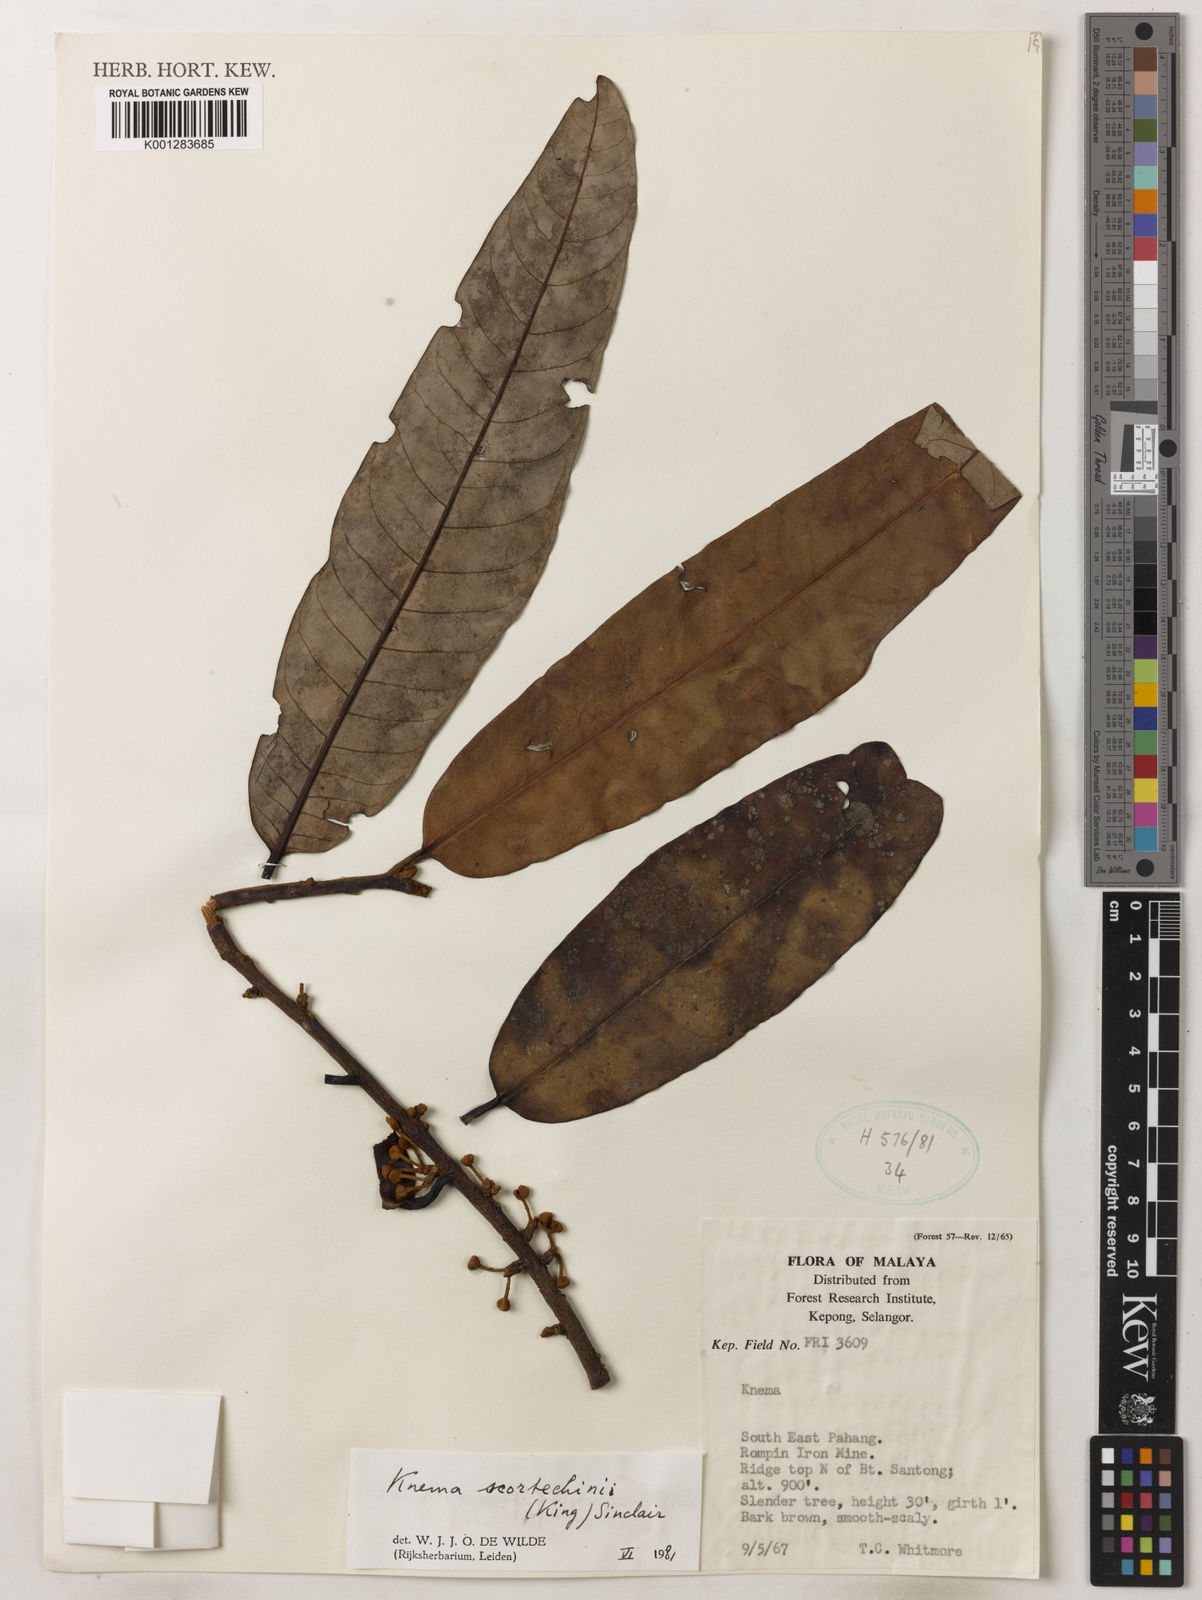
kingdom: Plantae
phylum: Tracheophyta
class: Magnoliopsida
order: Magnoliales
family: Myristicaceae
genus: Knema
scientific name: Knema scortechinii
